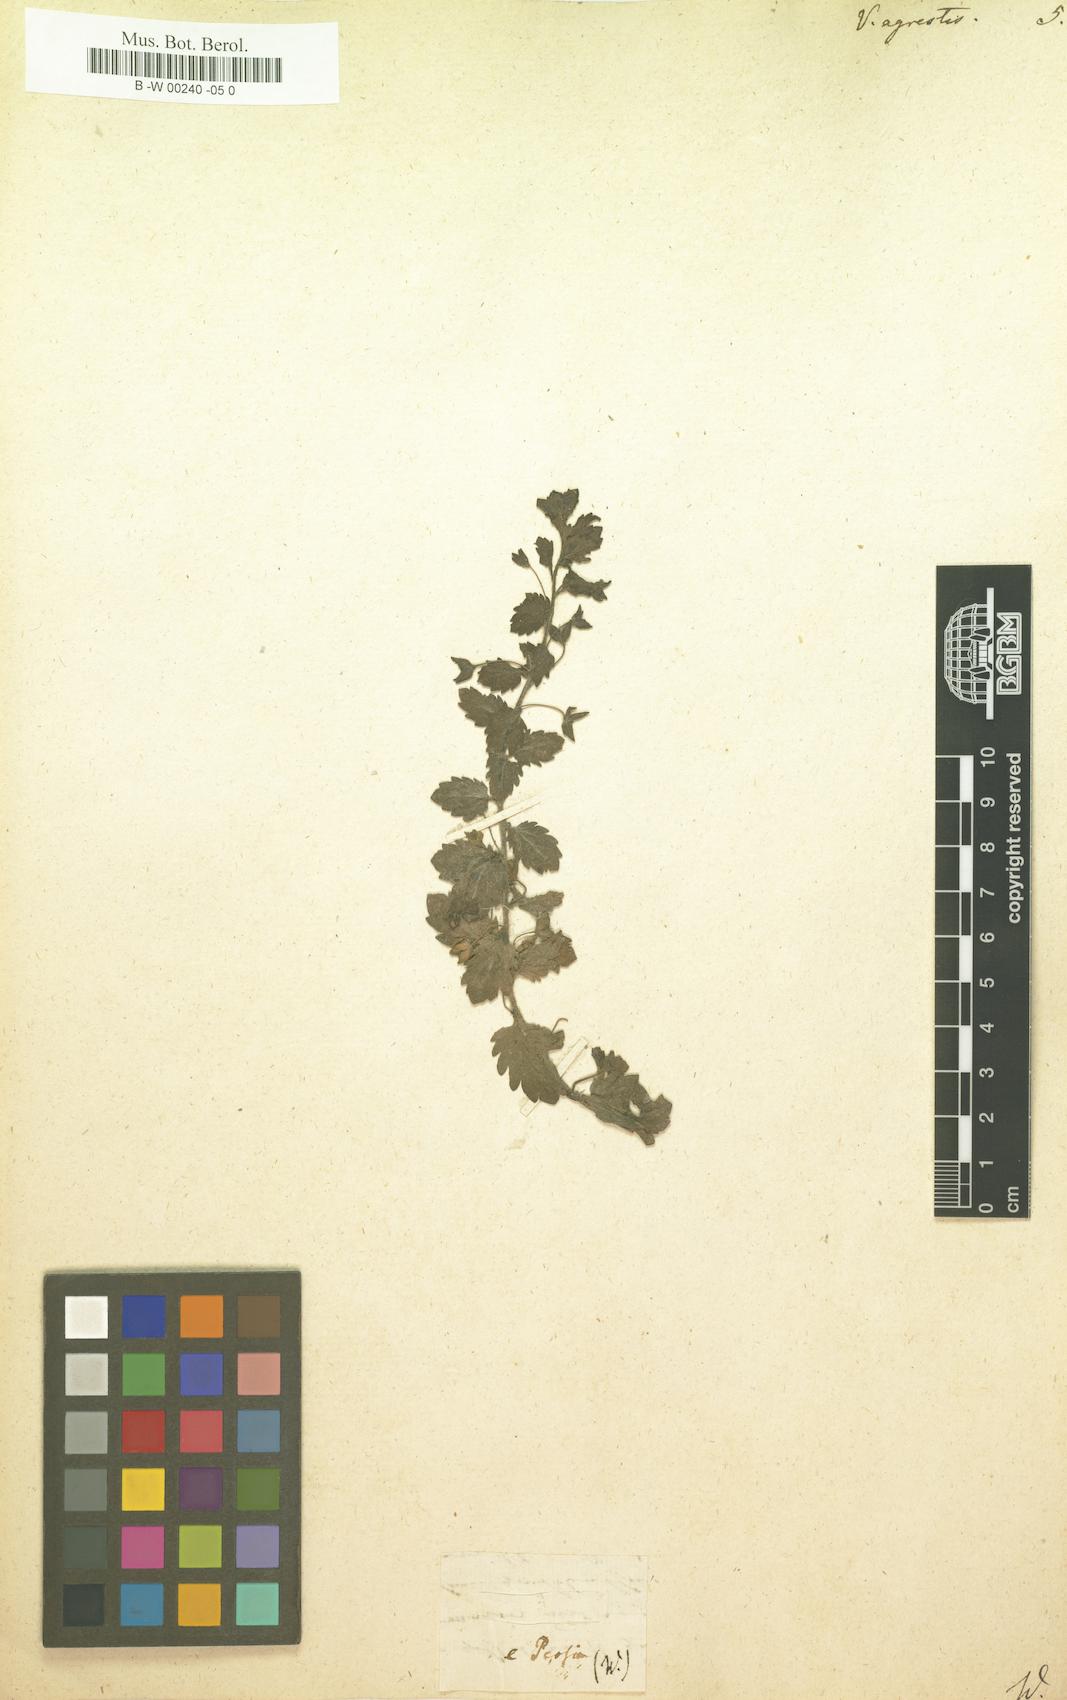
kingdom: Plantae
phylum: Tracheophyta
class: Magnoliopsida
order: Lamiales
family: Plantaginaceae
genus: Veronica
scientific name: Veronica agrestis
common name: Green field-speedwell
